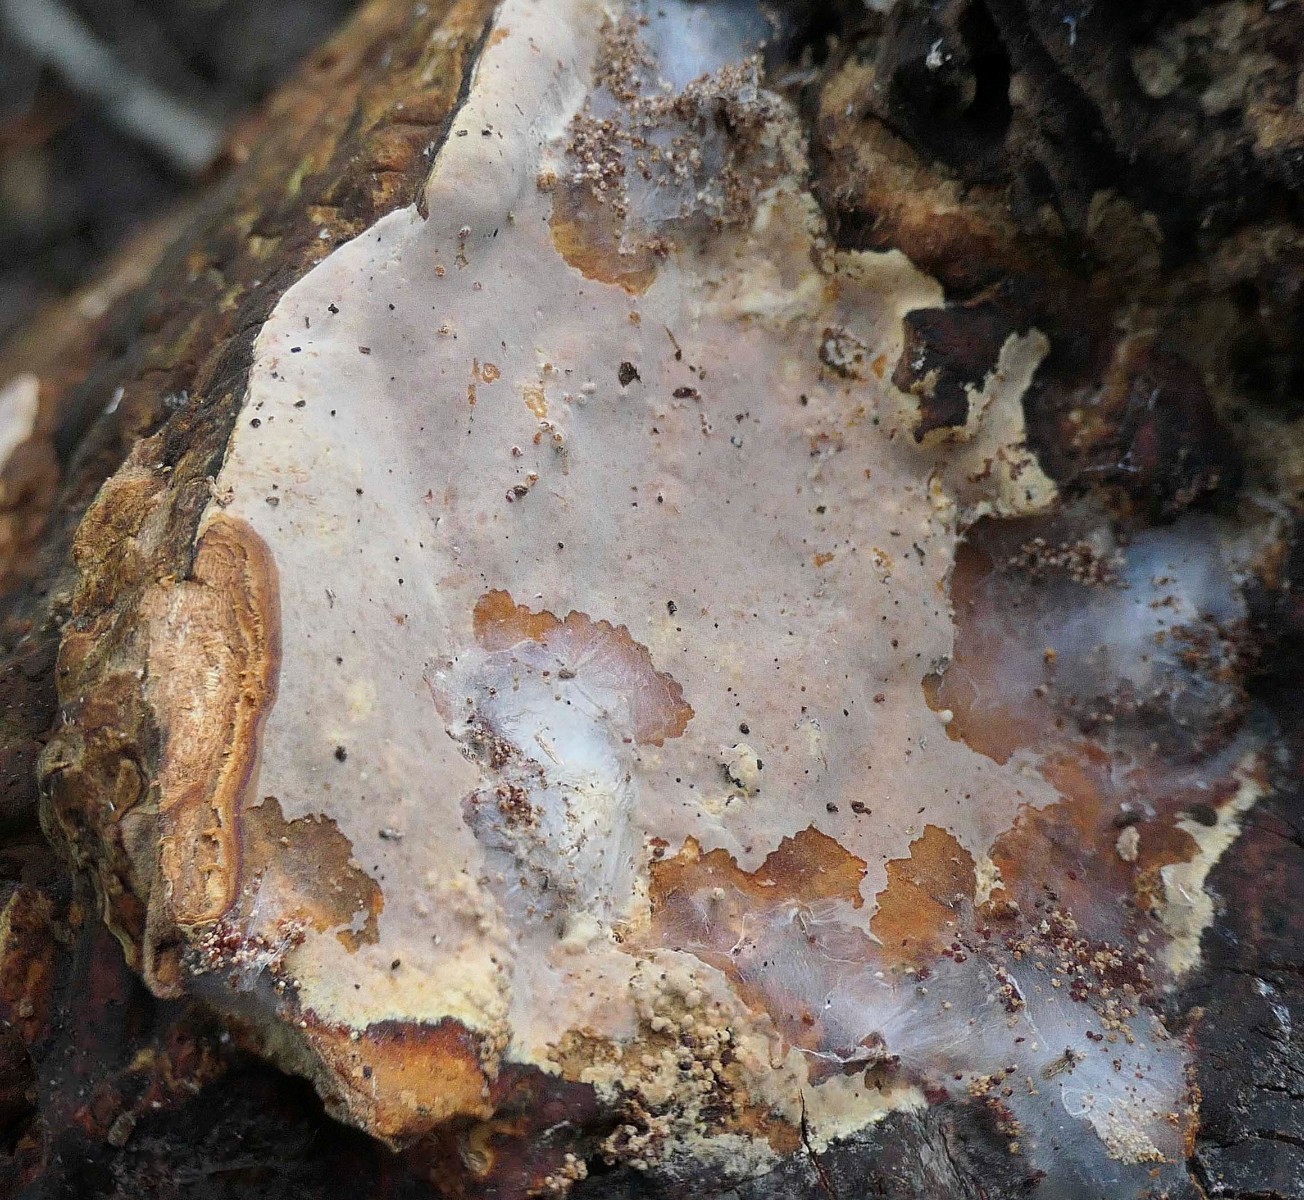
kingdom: Fungi
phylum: Basidiomycota
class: Agaricomycetes
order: Russulales
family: Peniophoraceae
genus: Scytinostroma
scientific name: Scytinostroma hemidichophyticum
